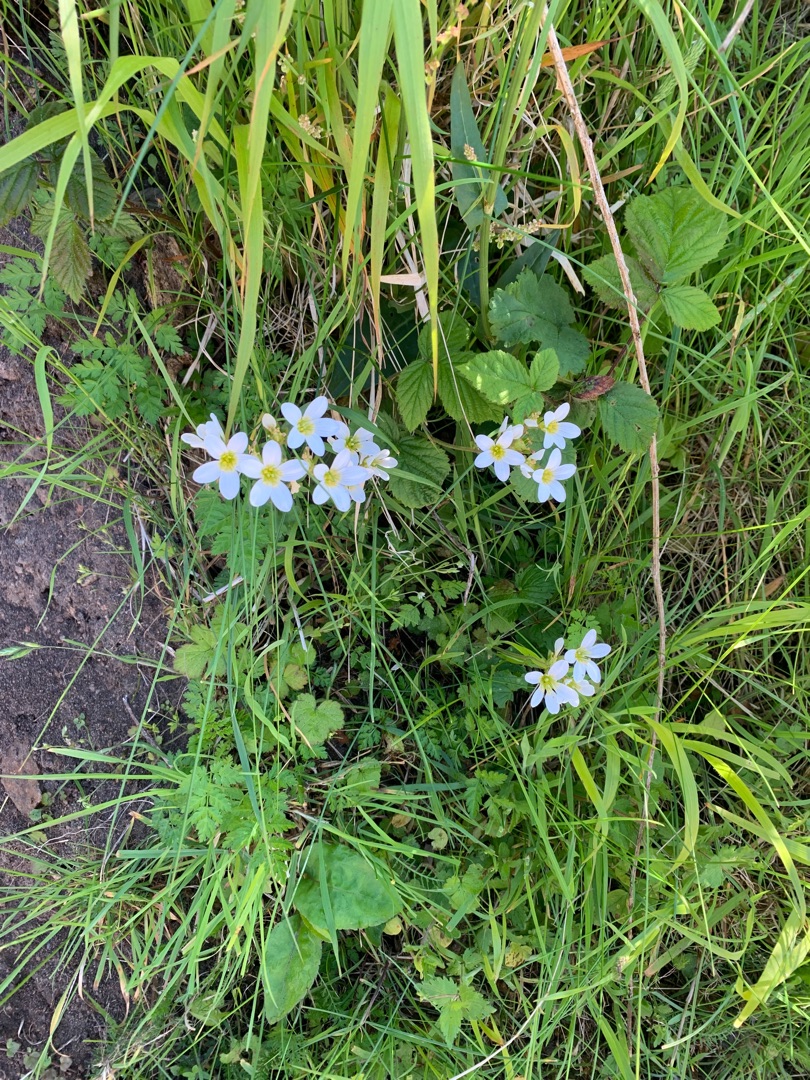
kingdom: Plantae
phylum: Tracheophyta
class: Magnoliopsida
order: Saxifragales
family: Saxifragaceae
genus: Saxifraga
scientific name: Saxifraga granulata
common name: Kornet stenbræk
